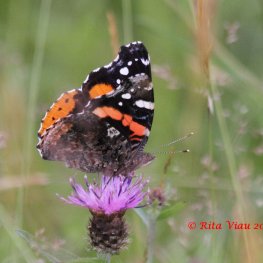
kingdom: Animalia
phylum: Arthropoda
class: Insecta
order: Lepidoptera
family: Nymphalidae
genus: Vanessa
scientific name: Vanessa atalanta
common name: Red Admiral
